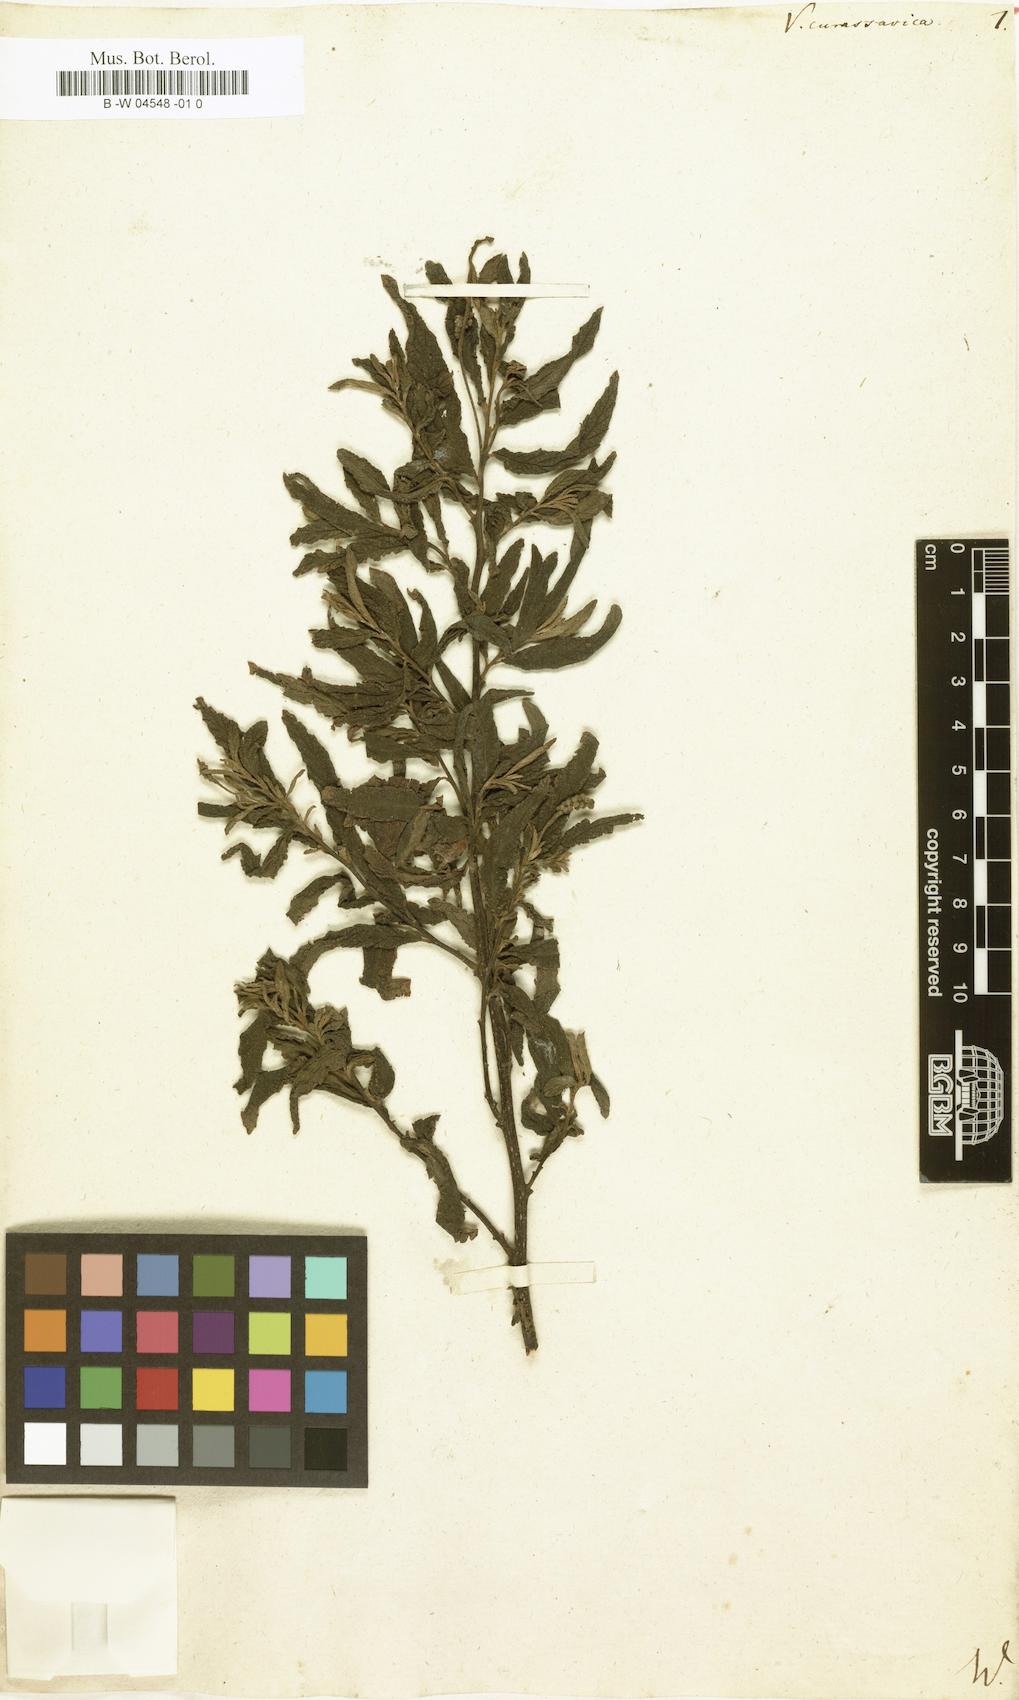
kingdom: Plantae
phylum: Tracheophyta
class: Magnoliopsida
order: Boraginales
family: Cordiaceae
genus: Varronia
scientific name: Varronia curassavica
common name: Black sage
